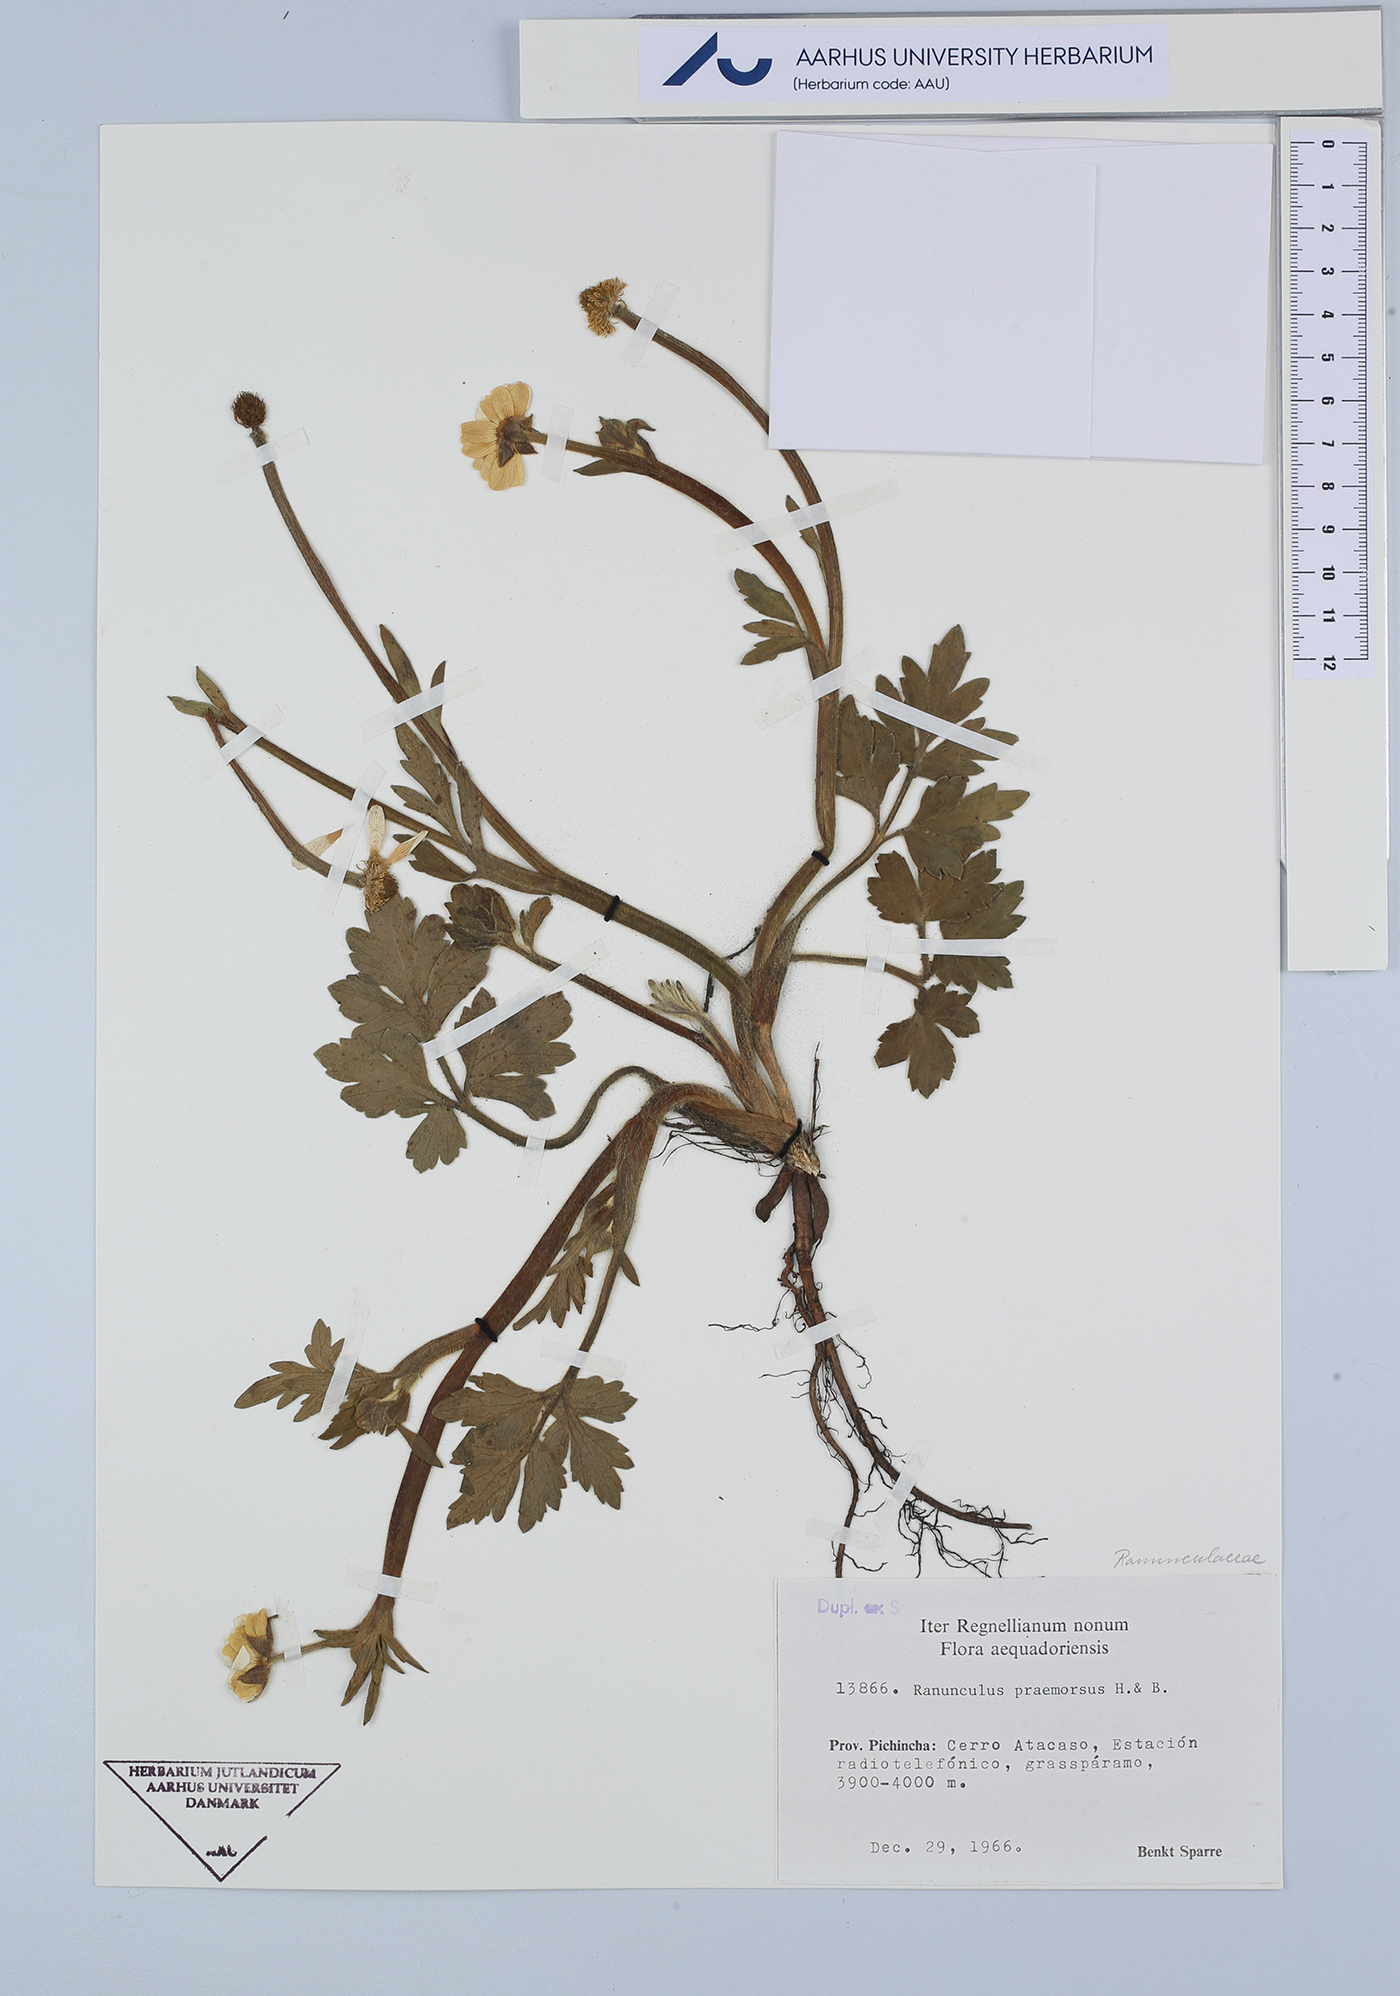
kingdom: Plantae
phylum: Tracheophyta
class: Magnoliopsida
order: Ranunculales
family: Ranunculaceae
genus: Ranunculus
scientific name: Ranunculus praemorsus
